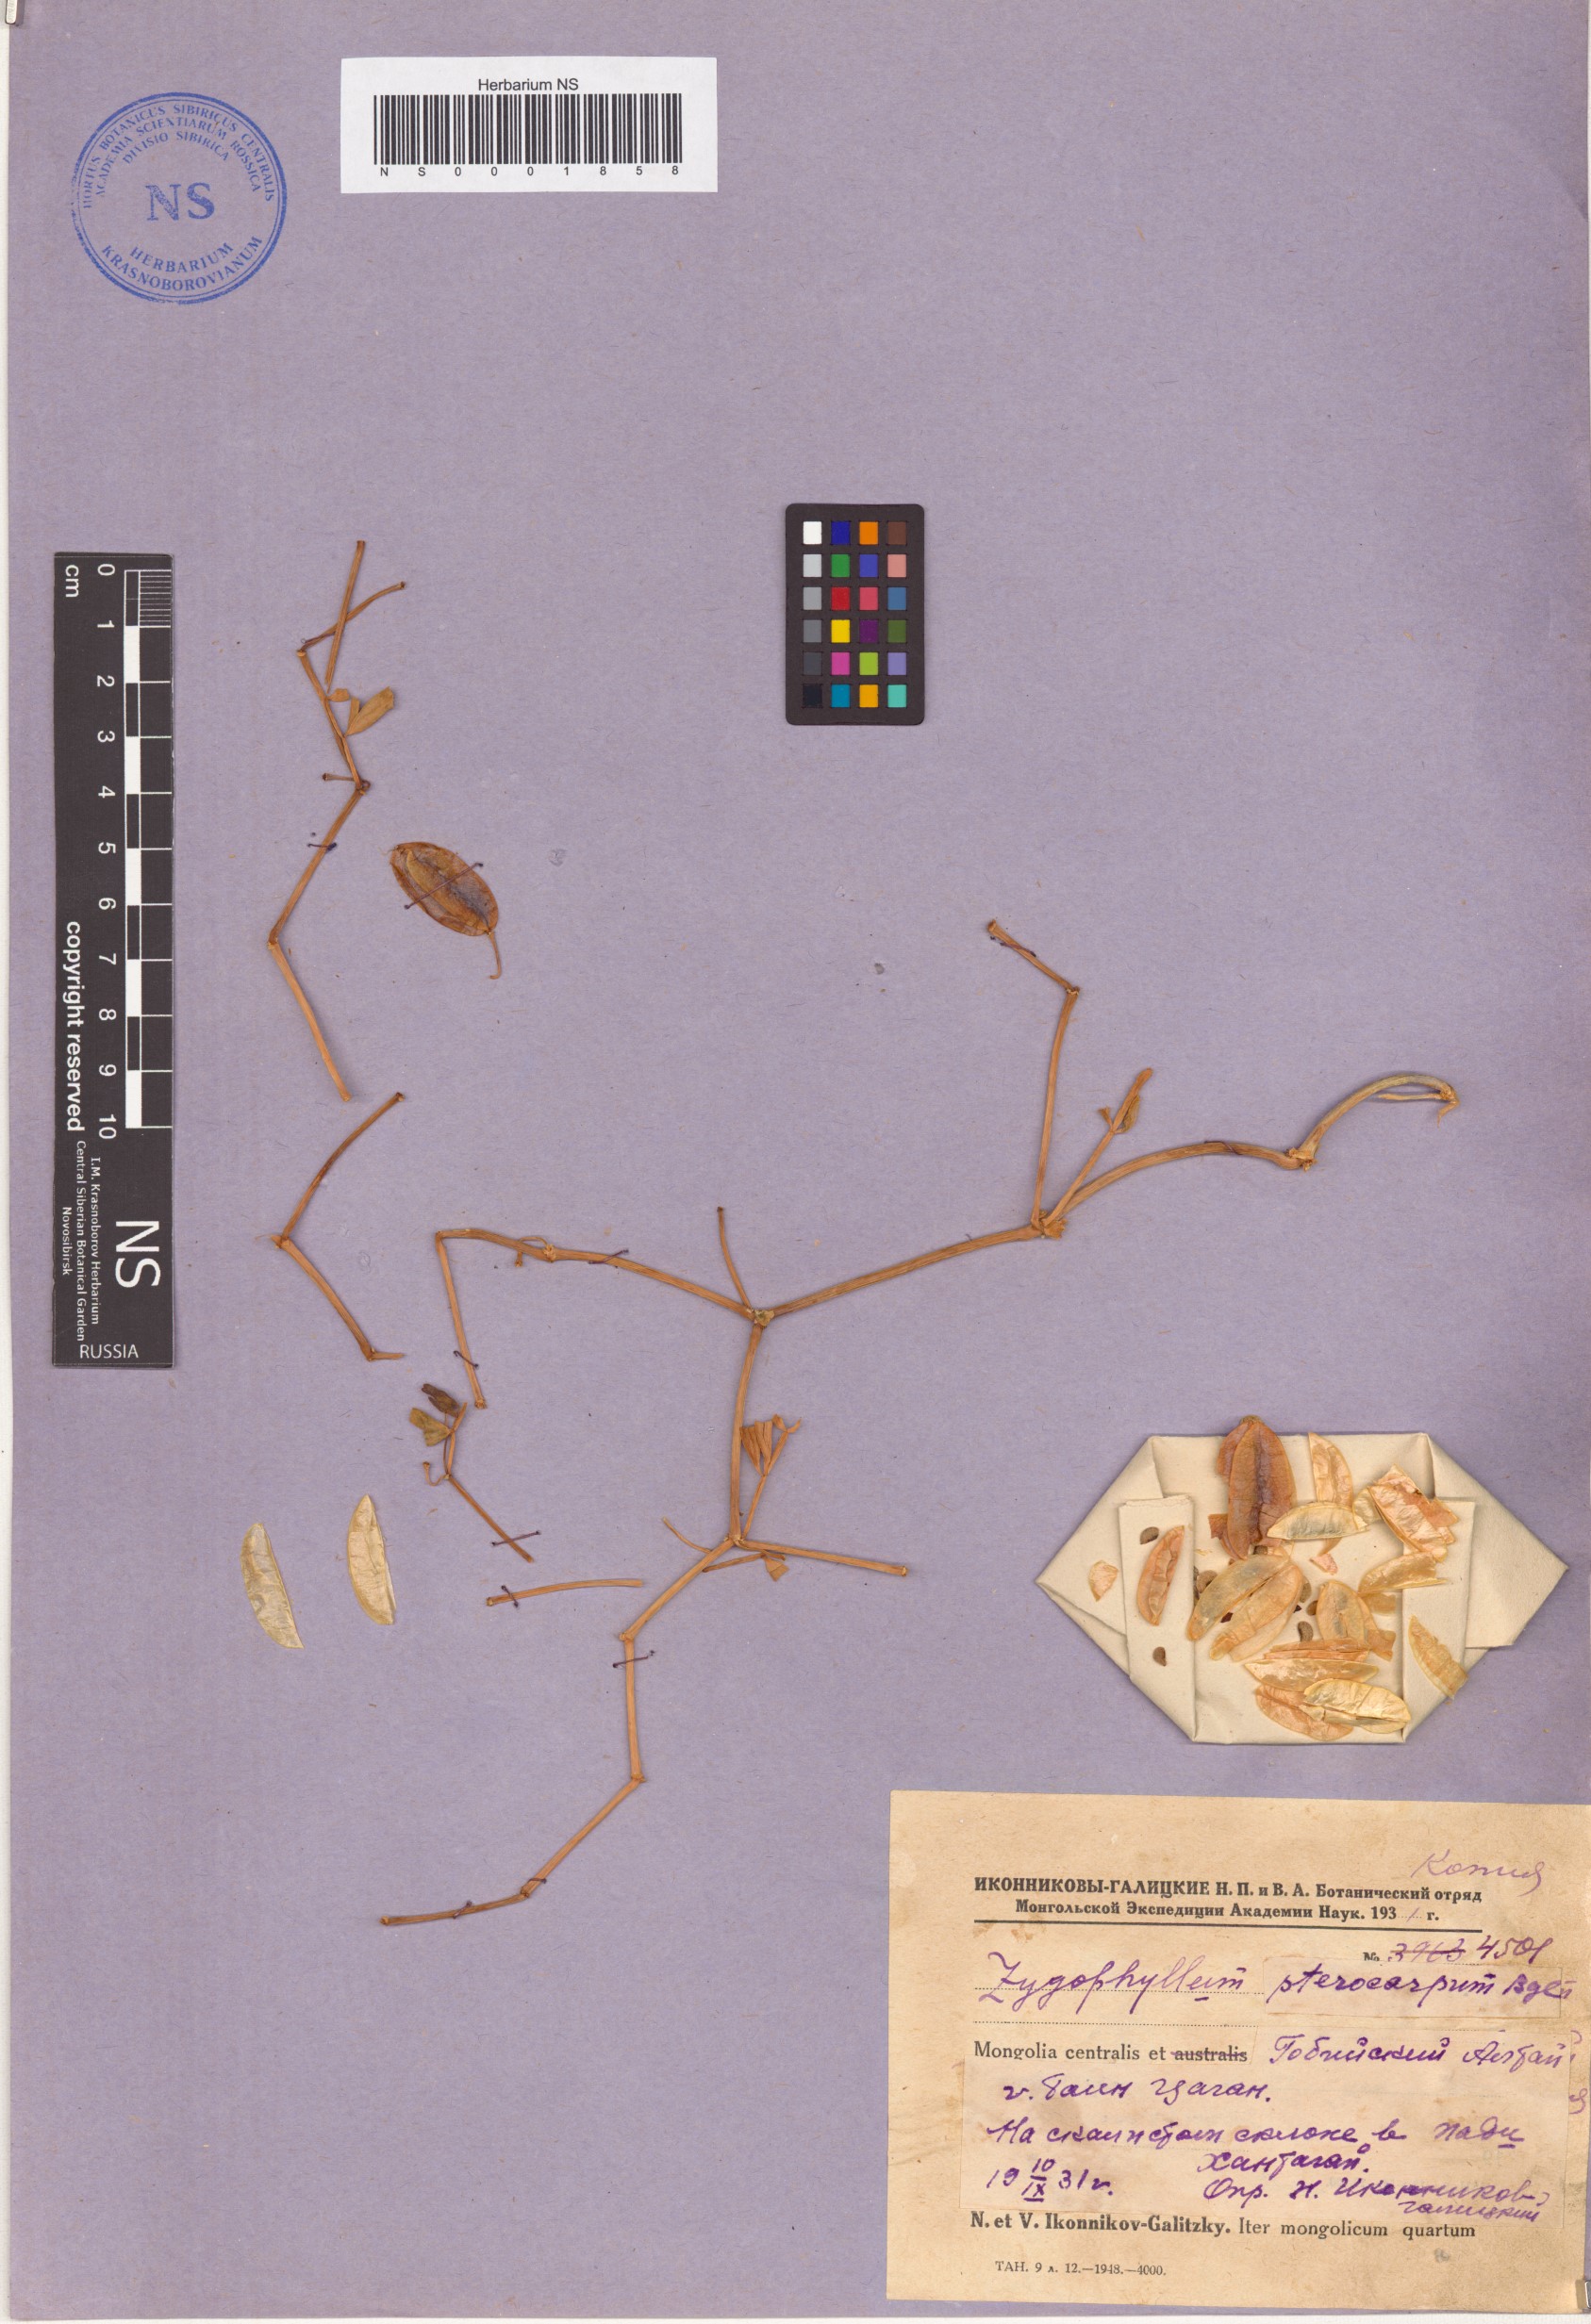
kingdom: Plantae
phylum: Tracheophyta
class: Magnoliopsida
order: Zygophyllales
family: Zygophyllaceae
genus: Zygophyllum
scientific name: Zygophyllum pterocarpum
